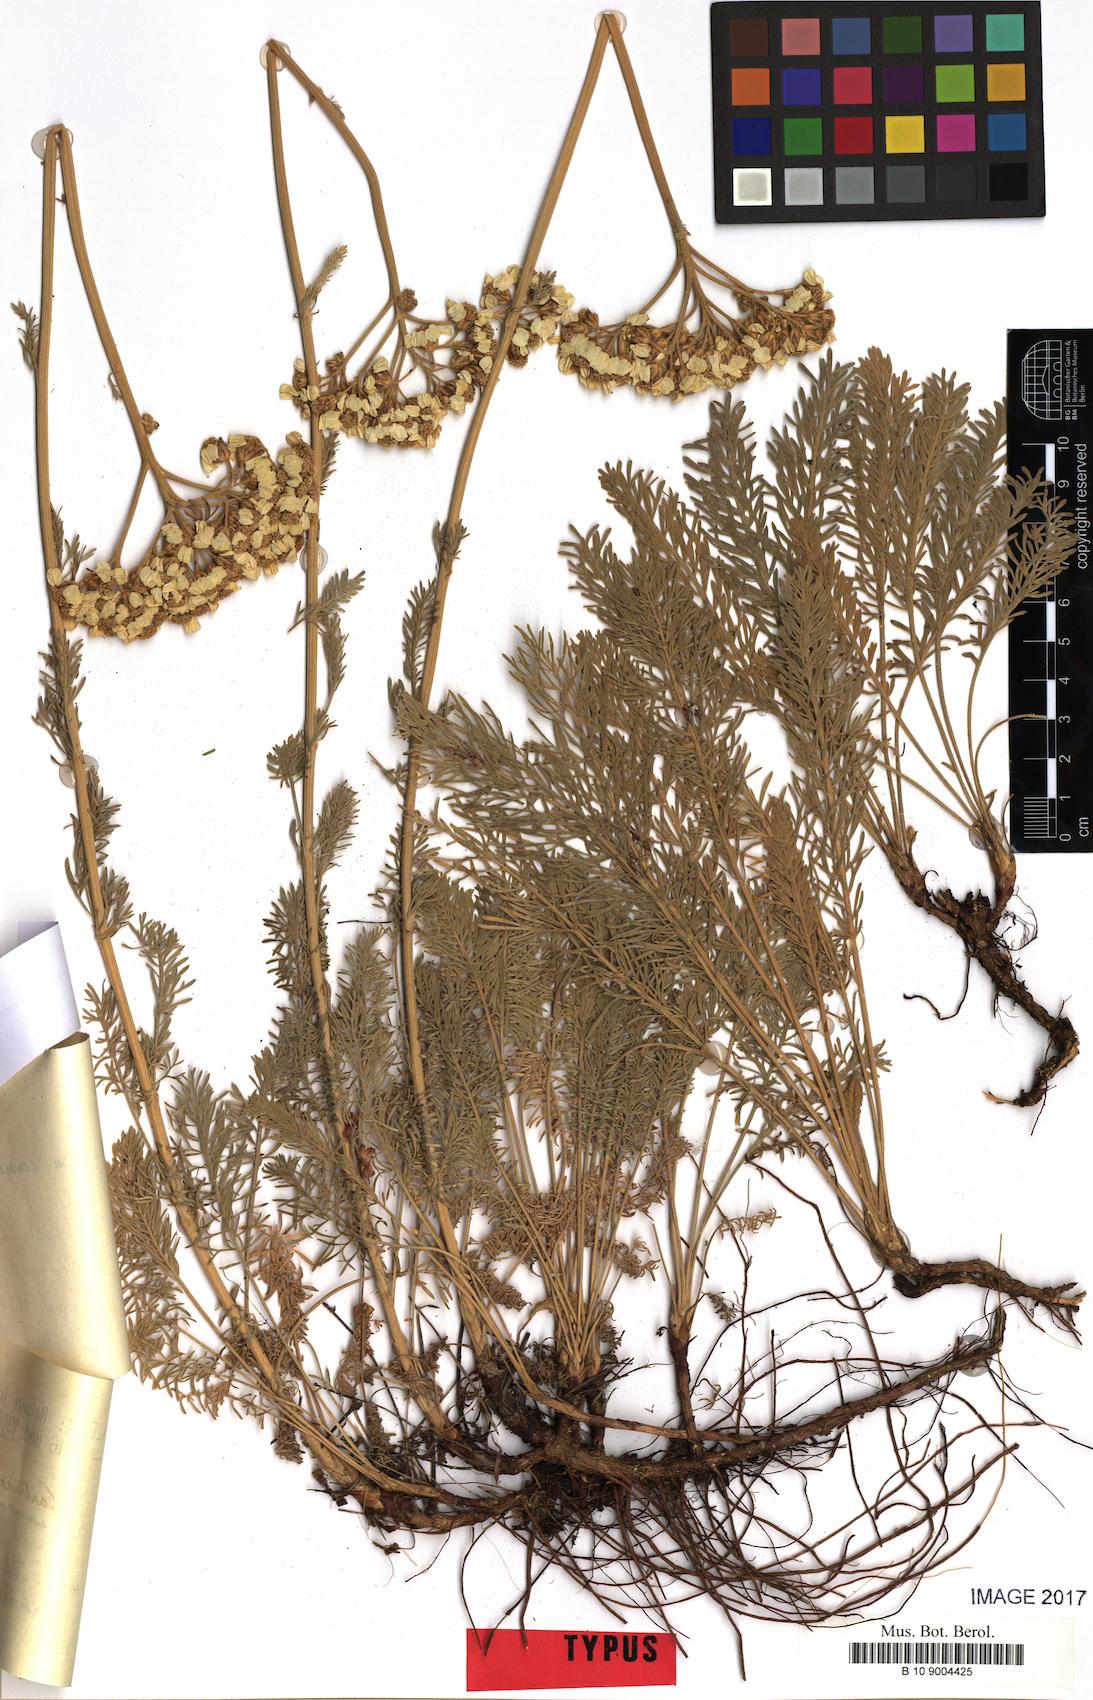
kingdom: Plantae
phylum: Tracheophyta
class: Magnoliopsida
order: Asterales
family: Asteraceae
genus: Achillea
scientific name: Achillea fraasii
